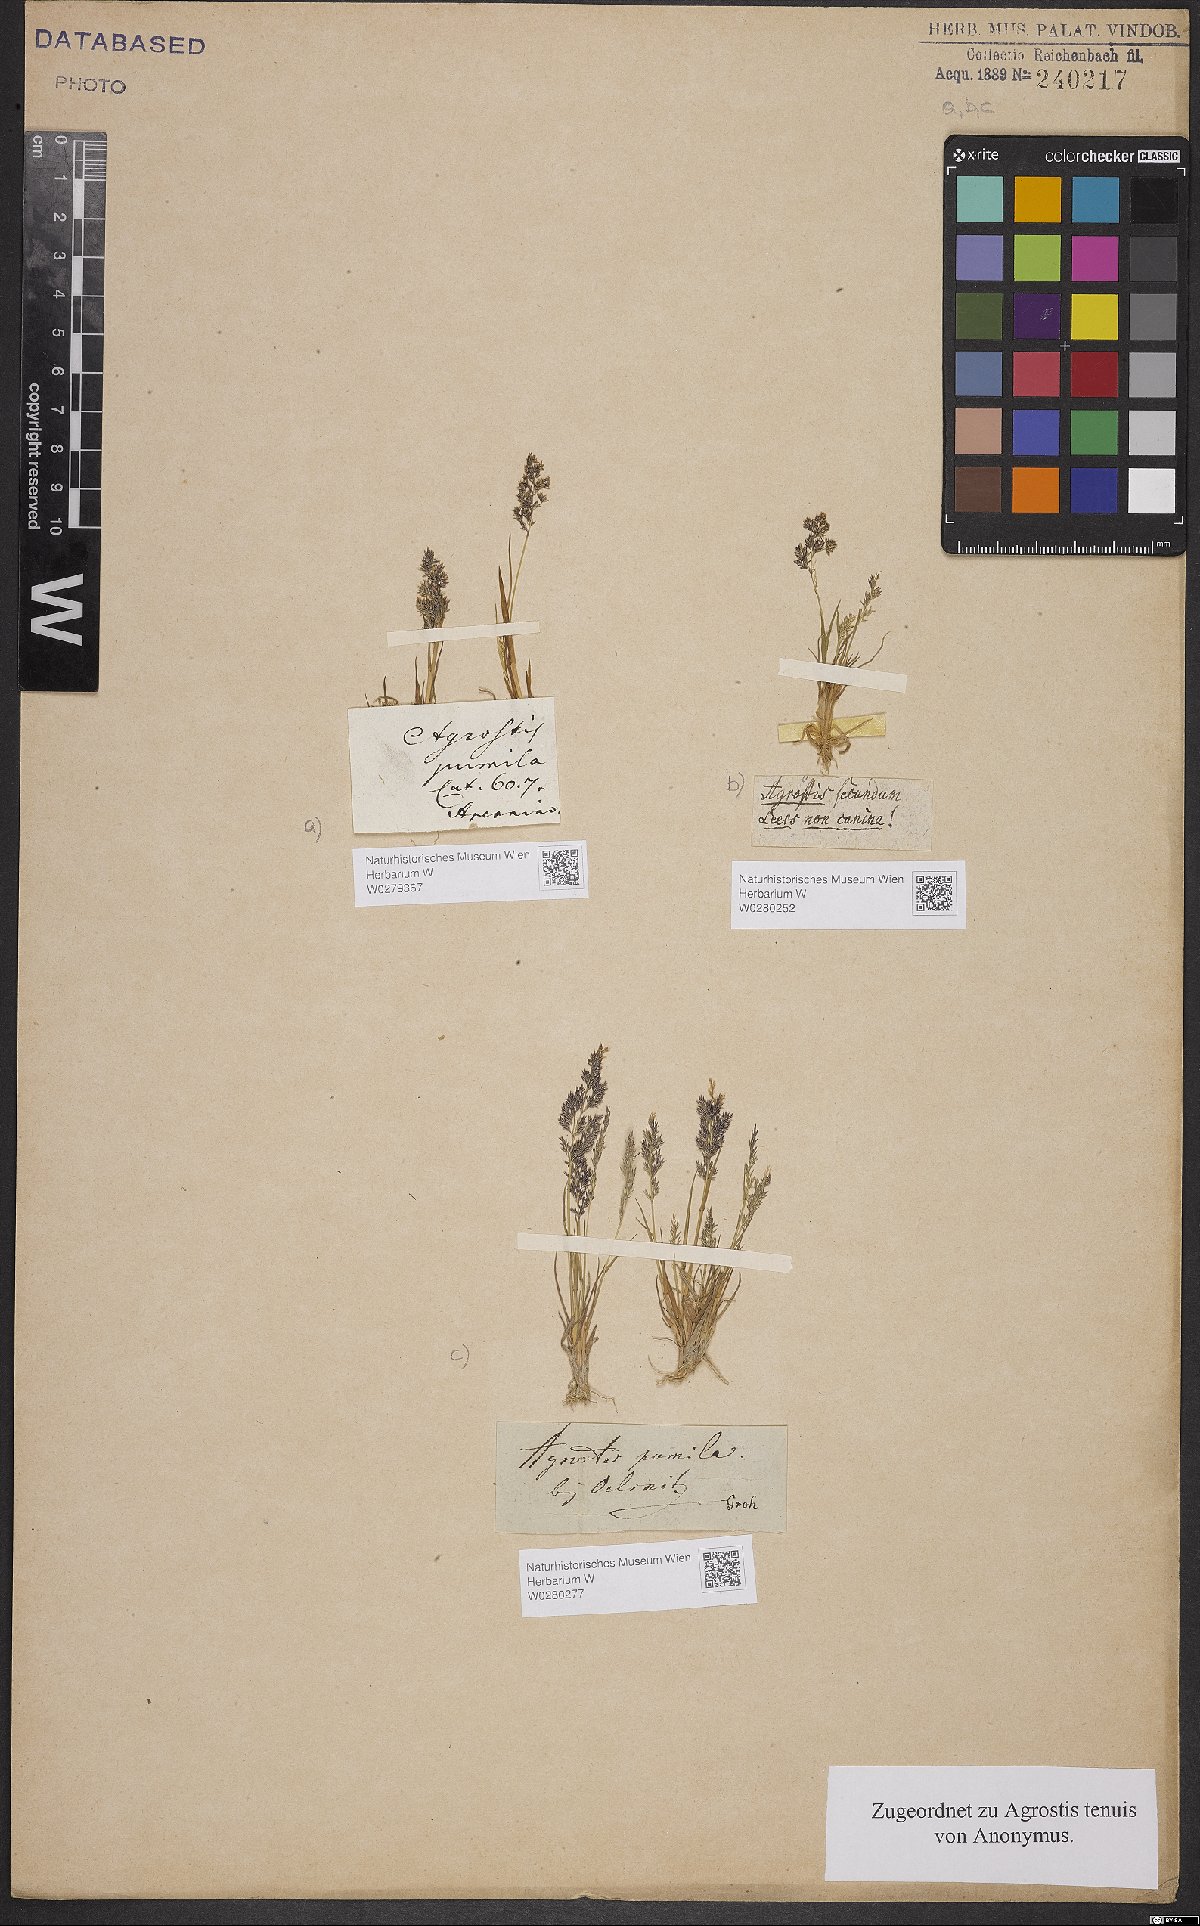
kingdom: Plantae
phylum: Tracheophyta
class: Liliopsida
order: Poales
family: Poaceae
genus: Agrostis
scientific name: Agrostis capillaris
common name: Colonial bentgrass
